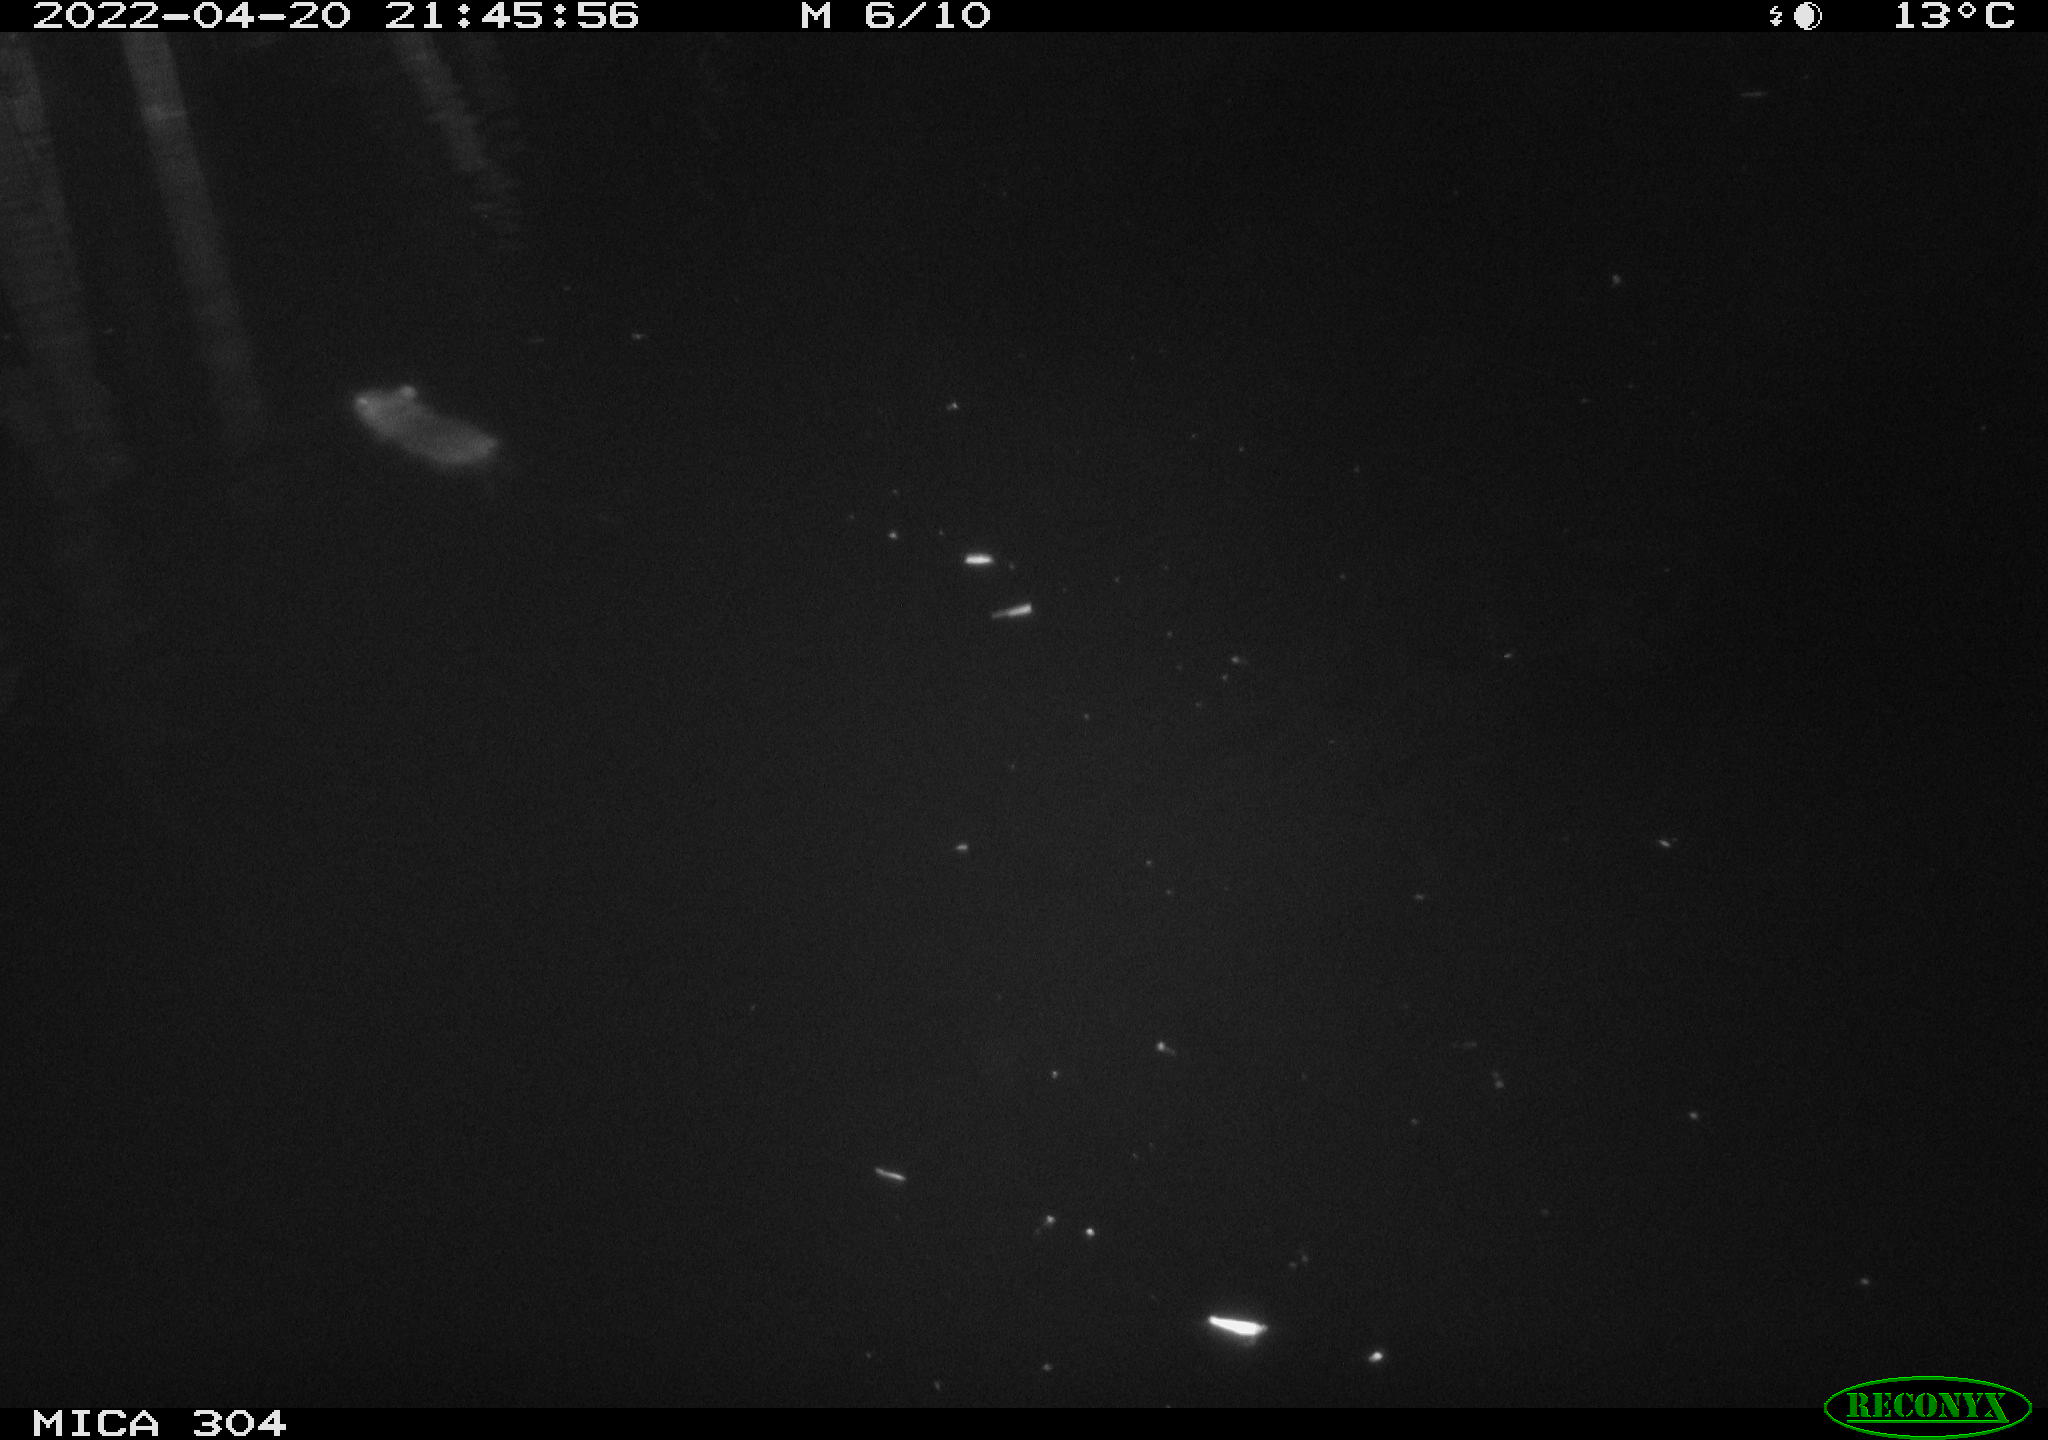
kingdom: Animalia
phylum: Chordata
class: Mammalia
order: Rodentia
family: Muridae
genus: Rattus
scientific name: Rattus norvegicus
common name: Brown rat
